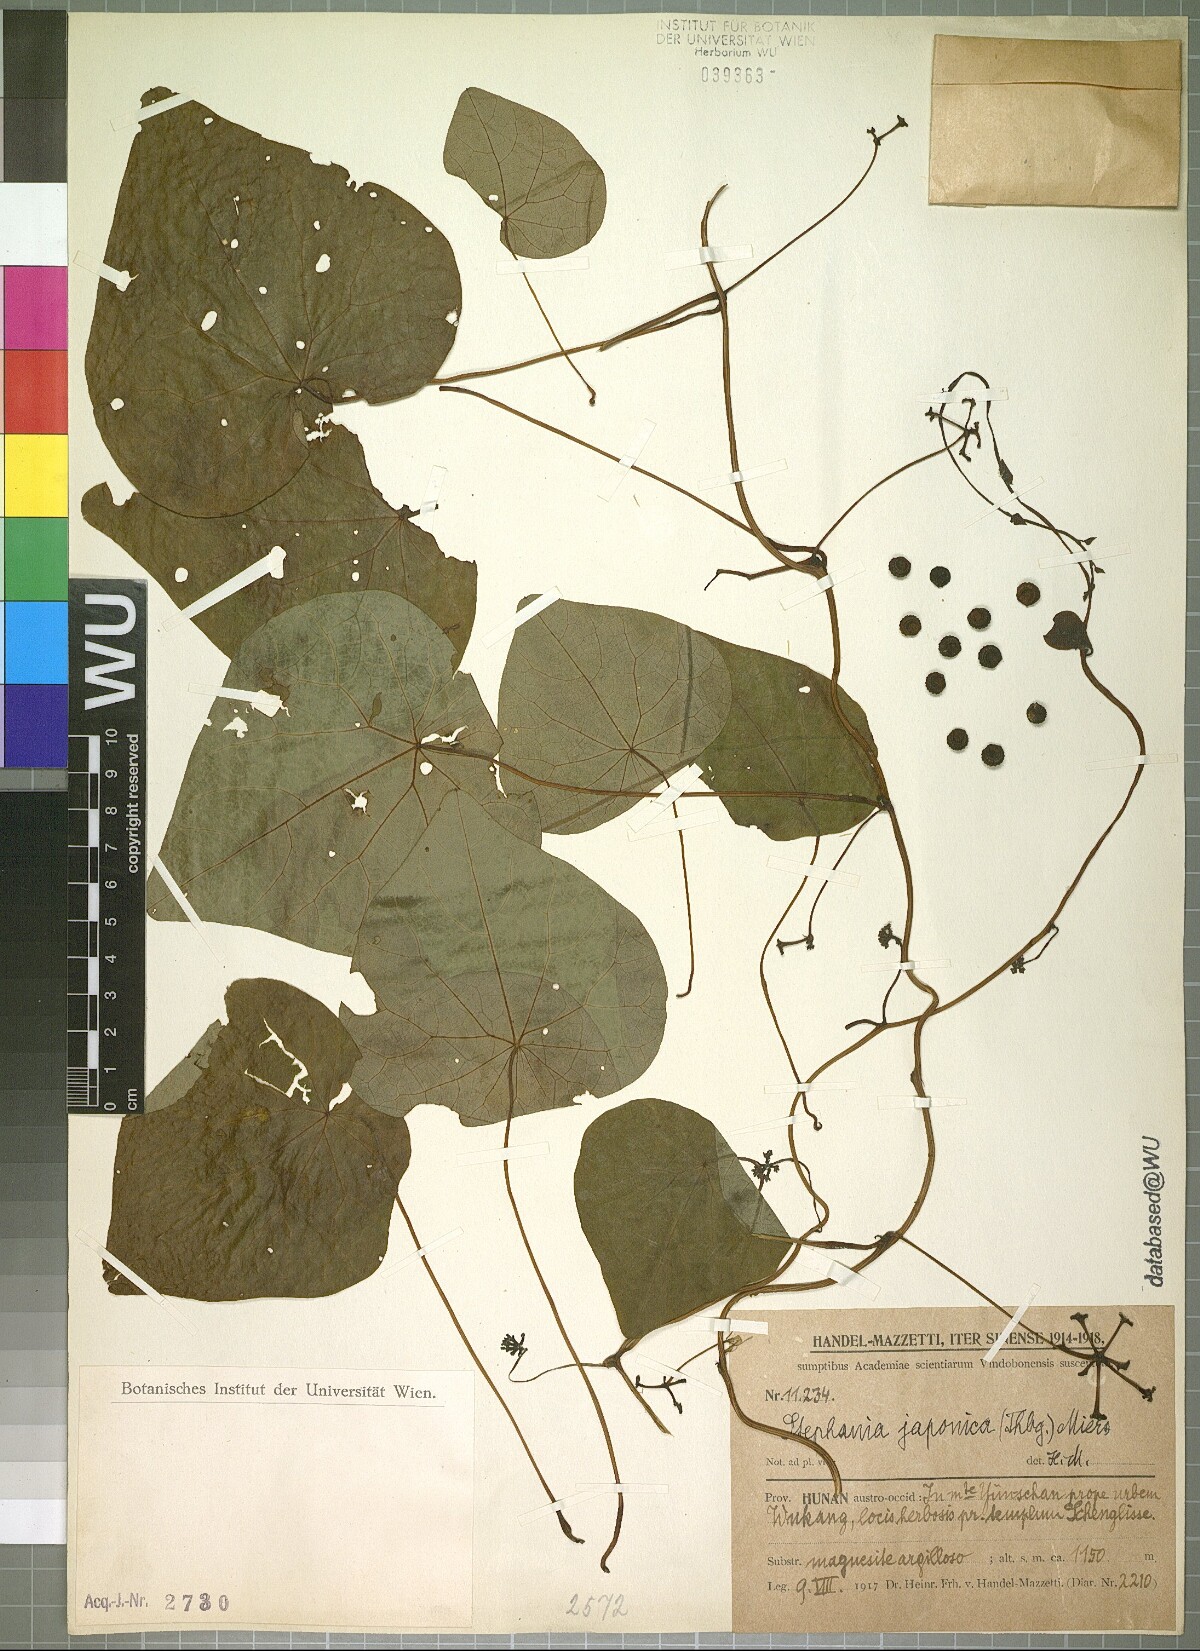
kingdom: Plantae
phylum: Tracheophyta
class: Magnoliopsida
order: Ranunculales
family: Menispermaceae
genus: Stephania
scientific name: Stephania japonica
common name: Snake vine
